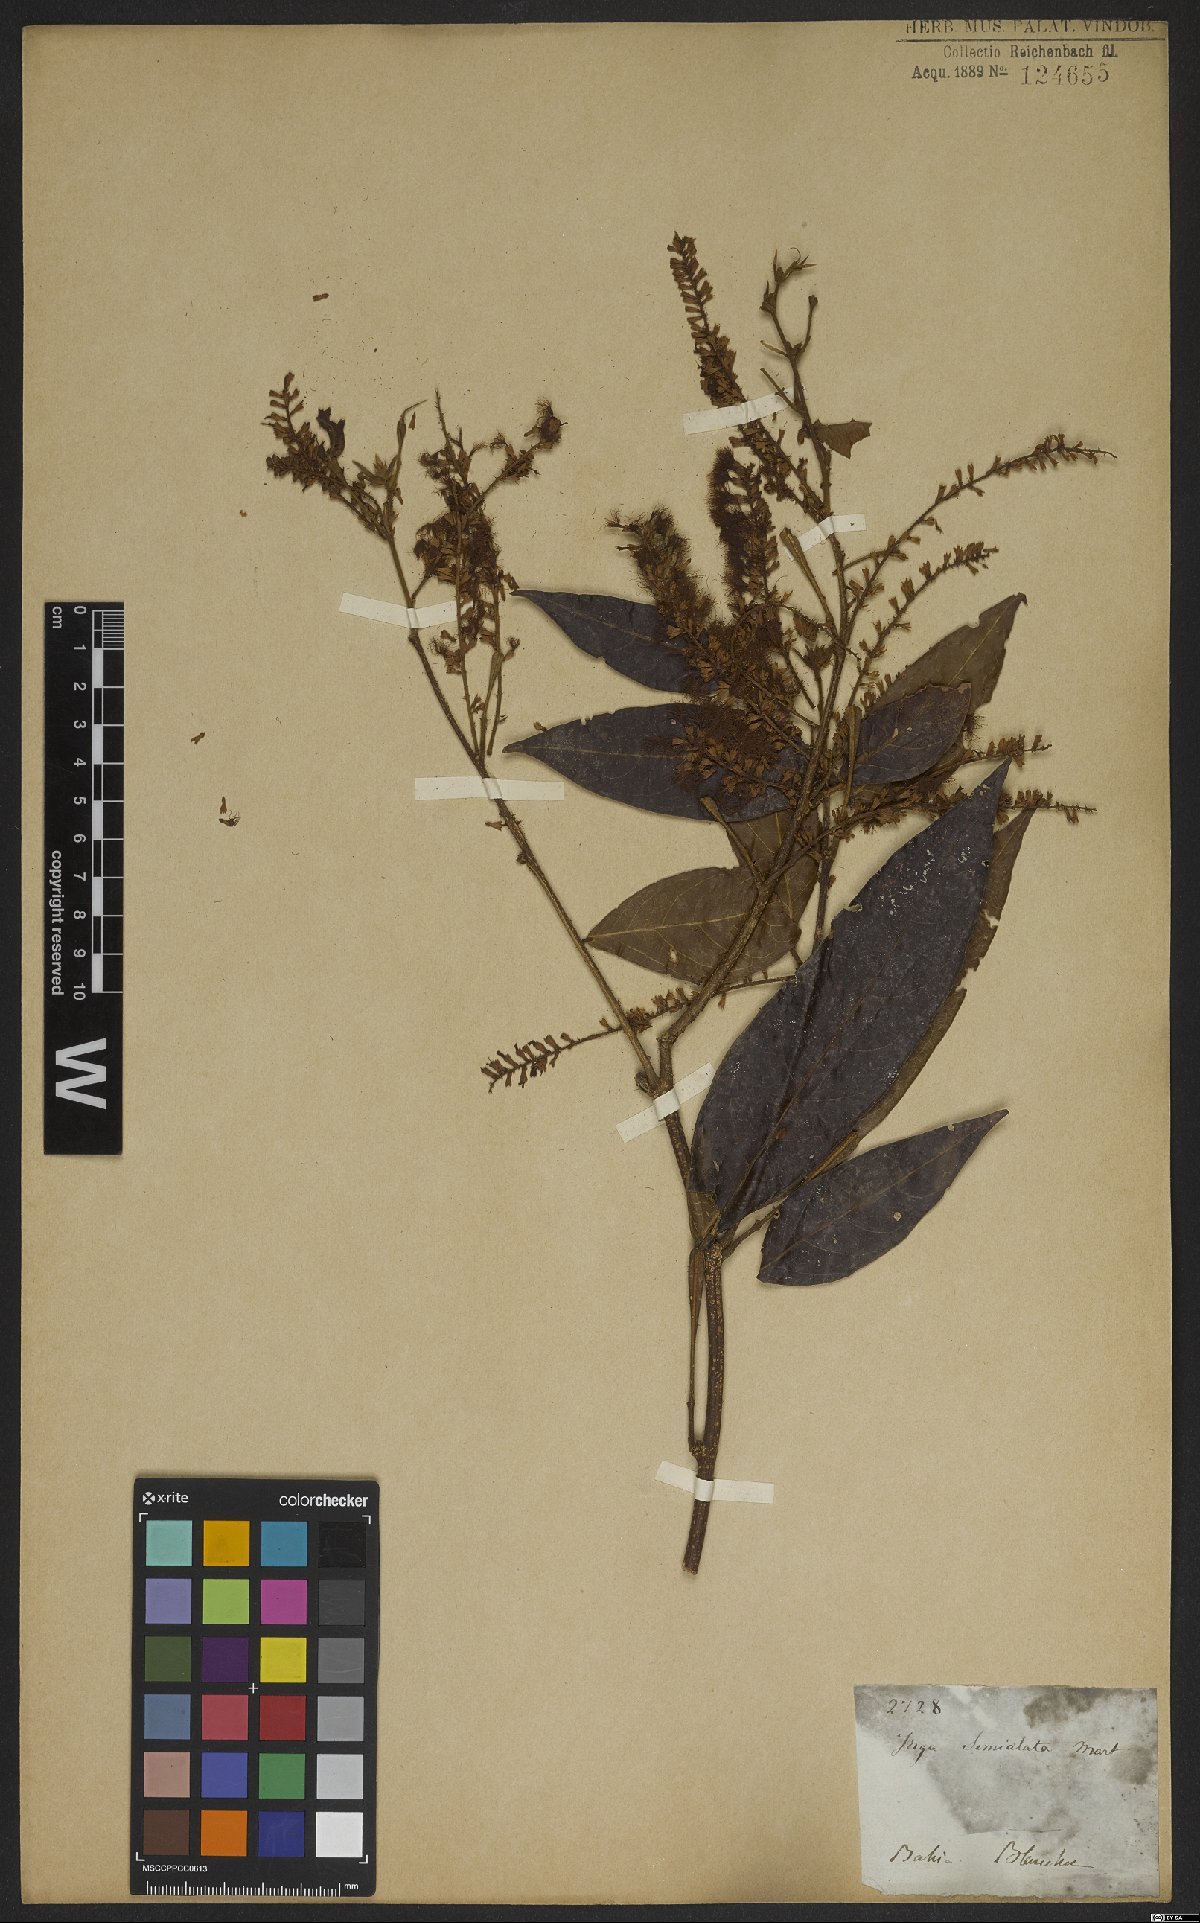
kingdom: Plantae
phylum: Tracheophyta
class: Magnoliopsida
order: Fabales
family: Fabaceae
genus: Inga
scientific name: Inga marginata
